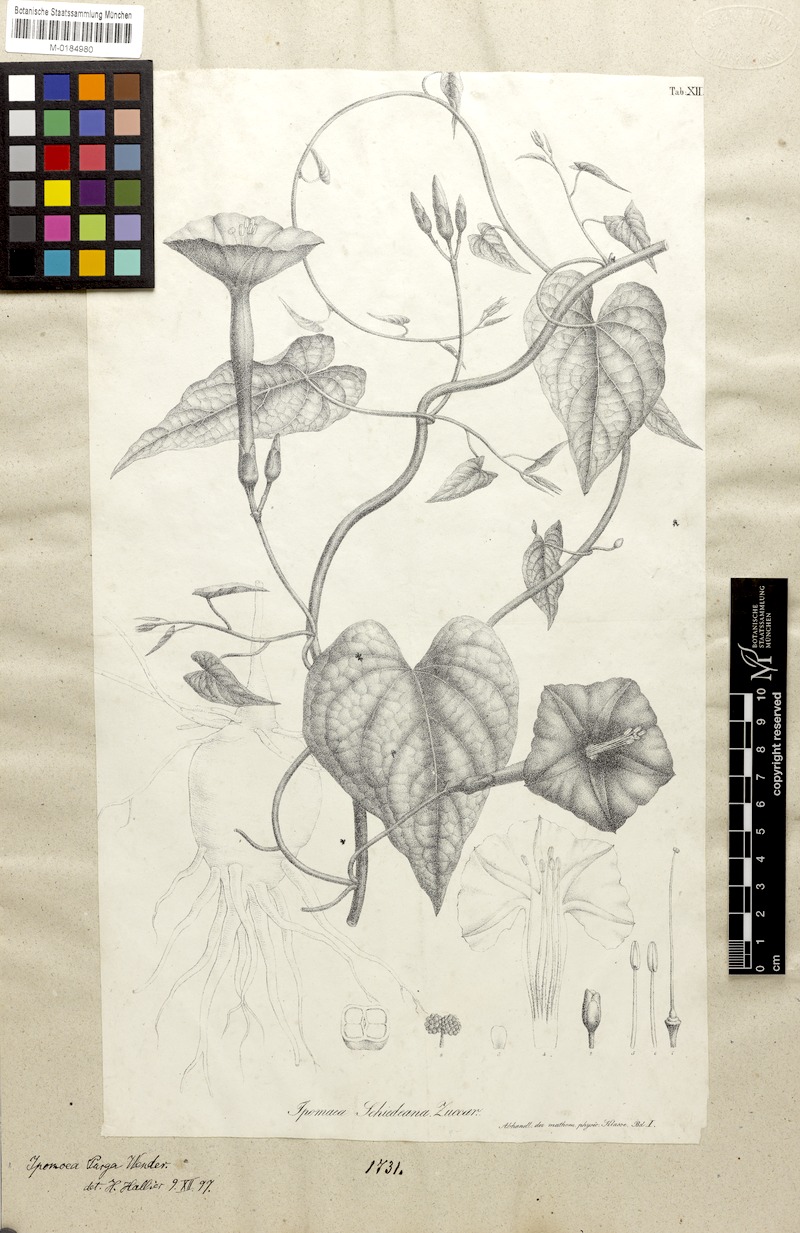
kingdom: Plantae
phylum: Tracheophyta
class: Magnoliopsida
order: Solanales
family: Convolvulaceae
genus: Ipomoea
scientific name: Ipomoea purga
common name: Jalap
